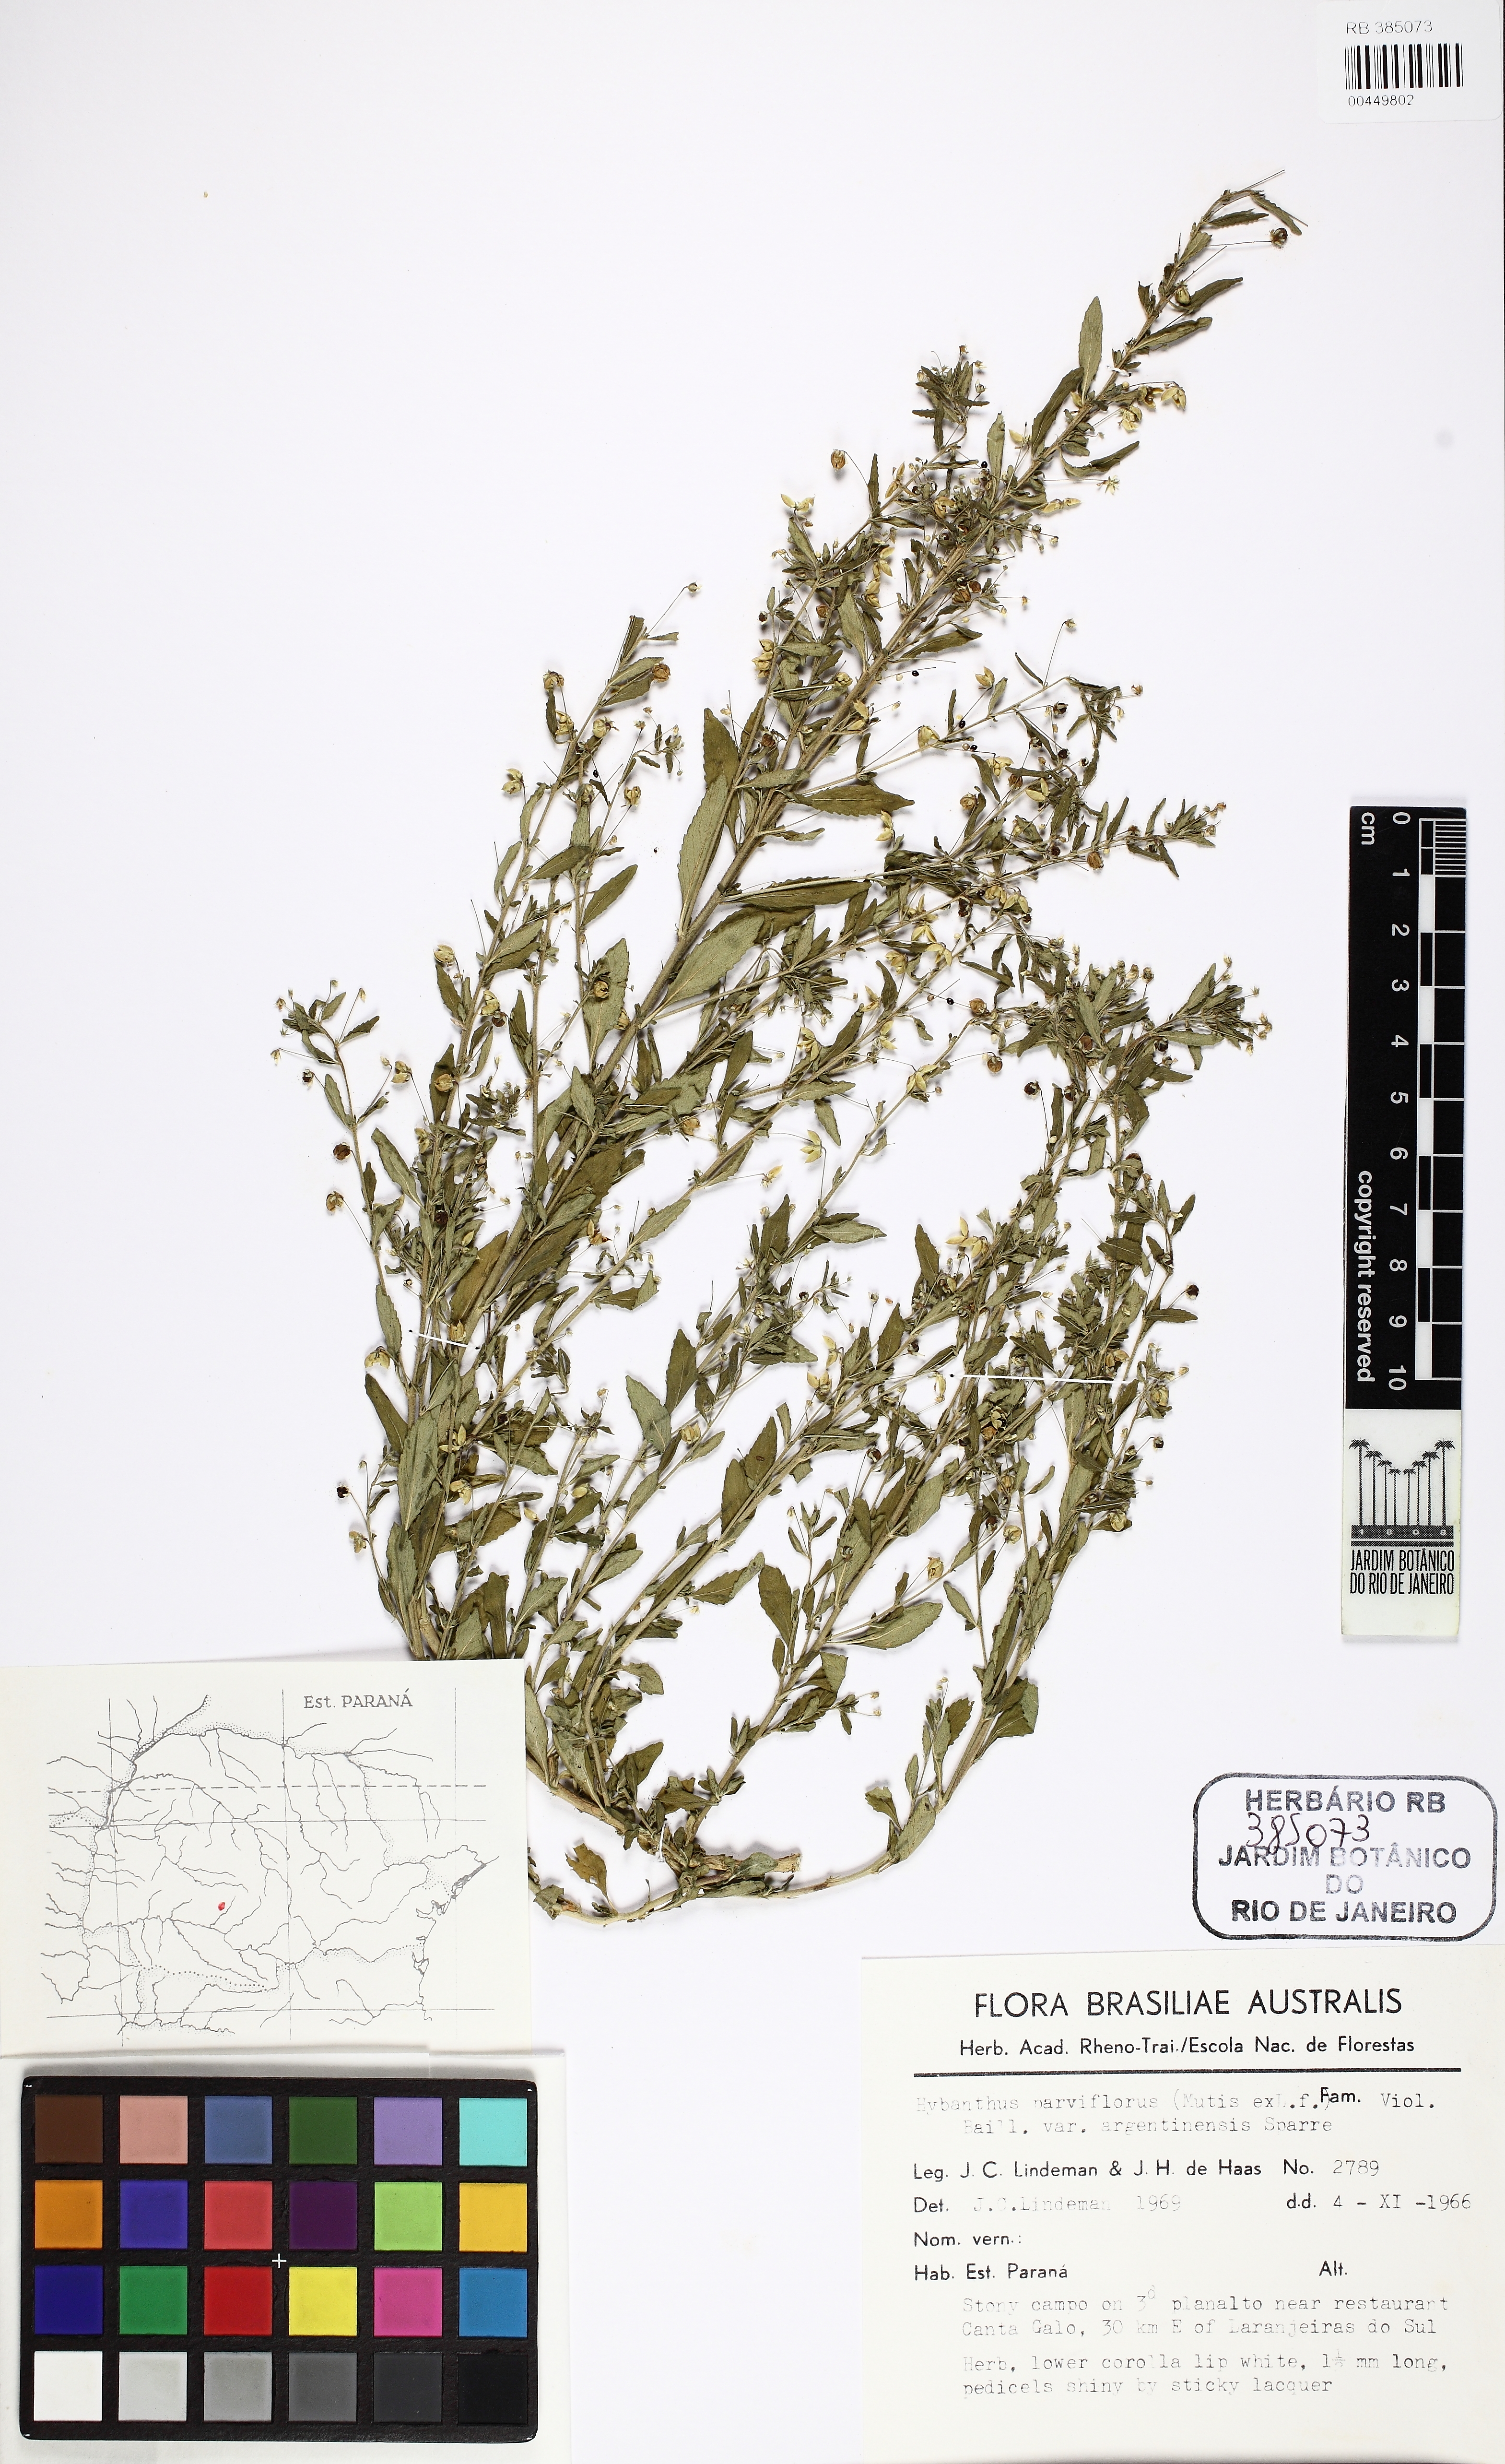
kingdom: Plantae
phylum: Tracheophyta
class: Magnoliopsida
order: Malpighiales
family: Violaceae
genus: Pombalia
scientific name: Pombalia parviflora
